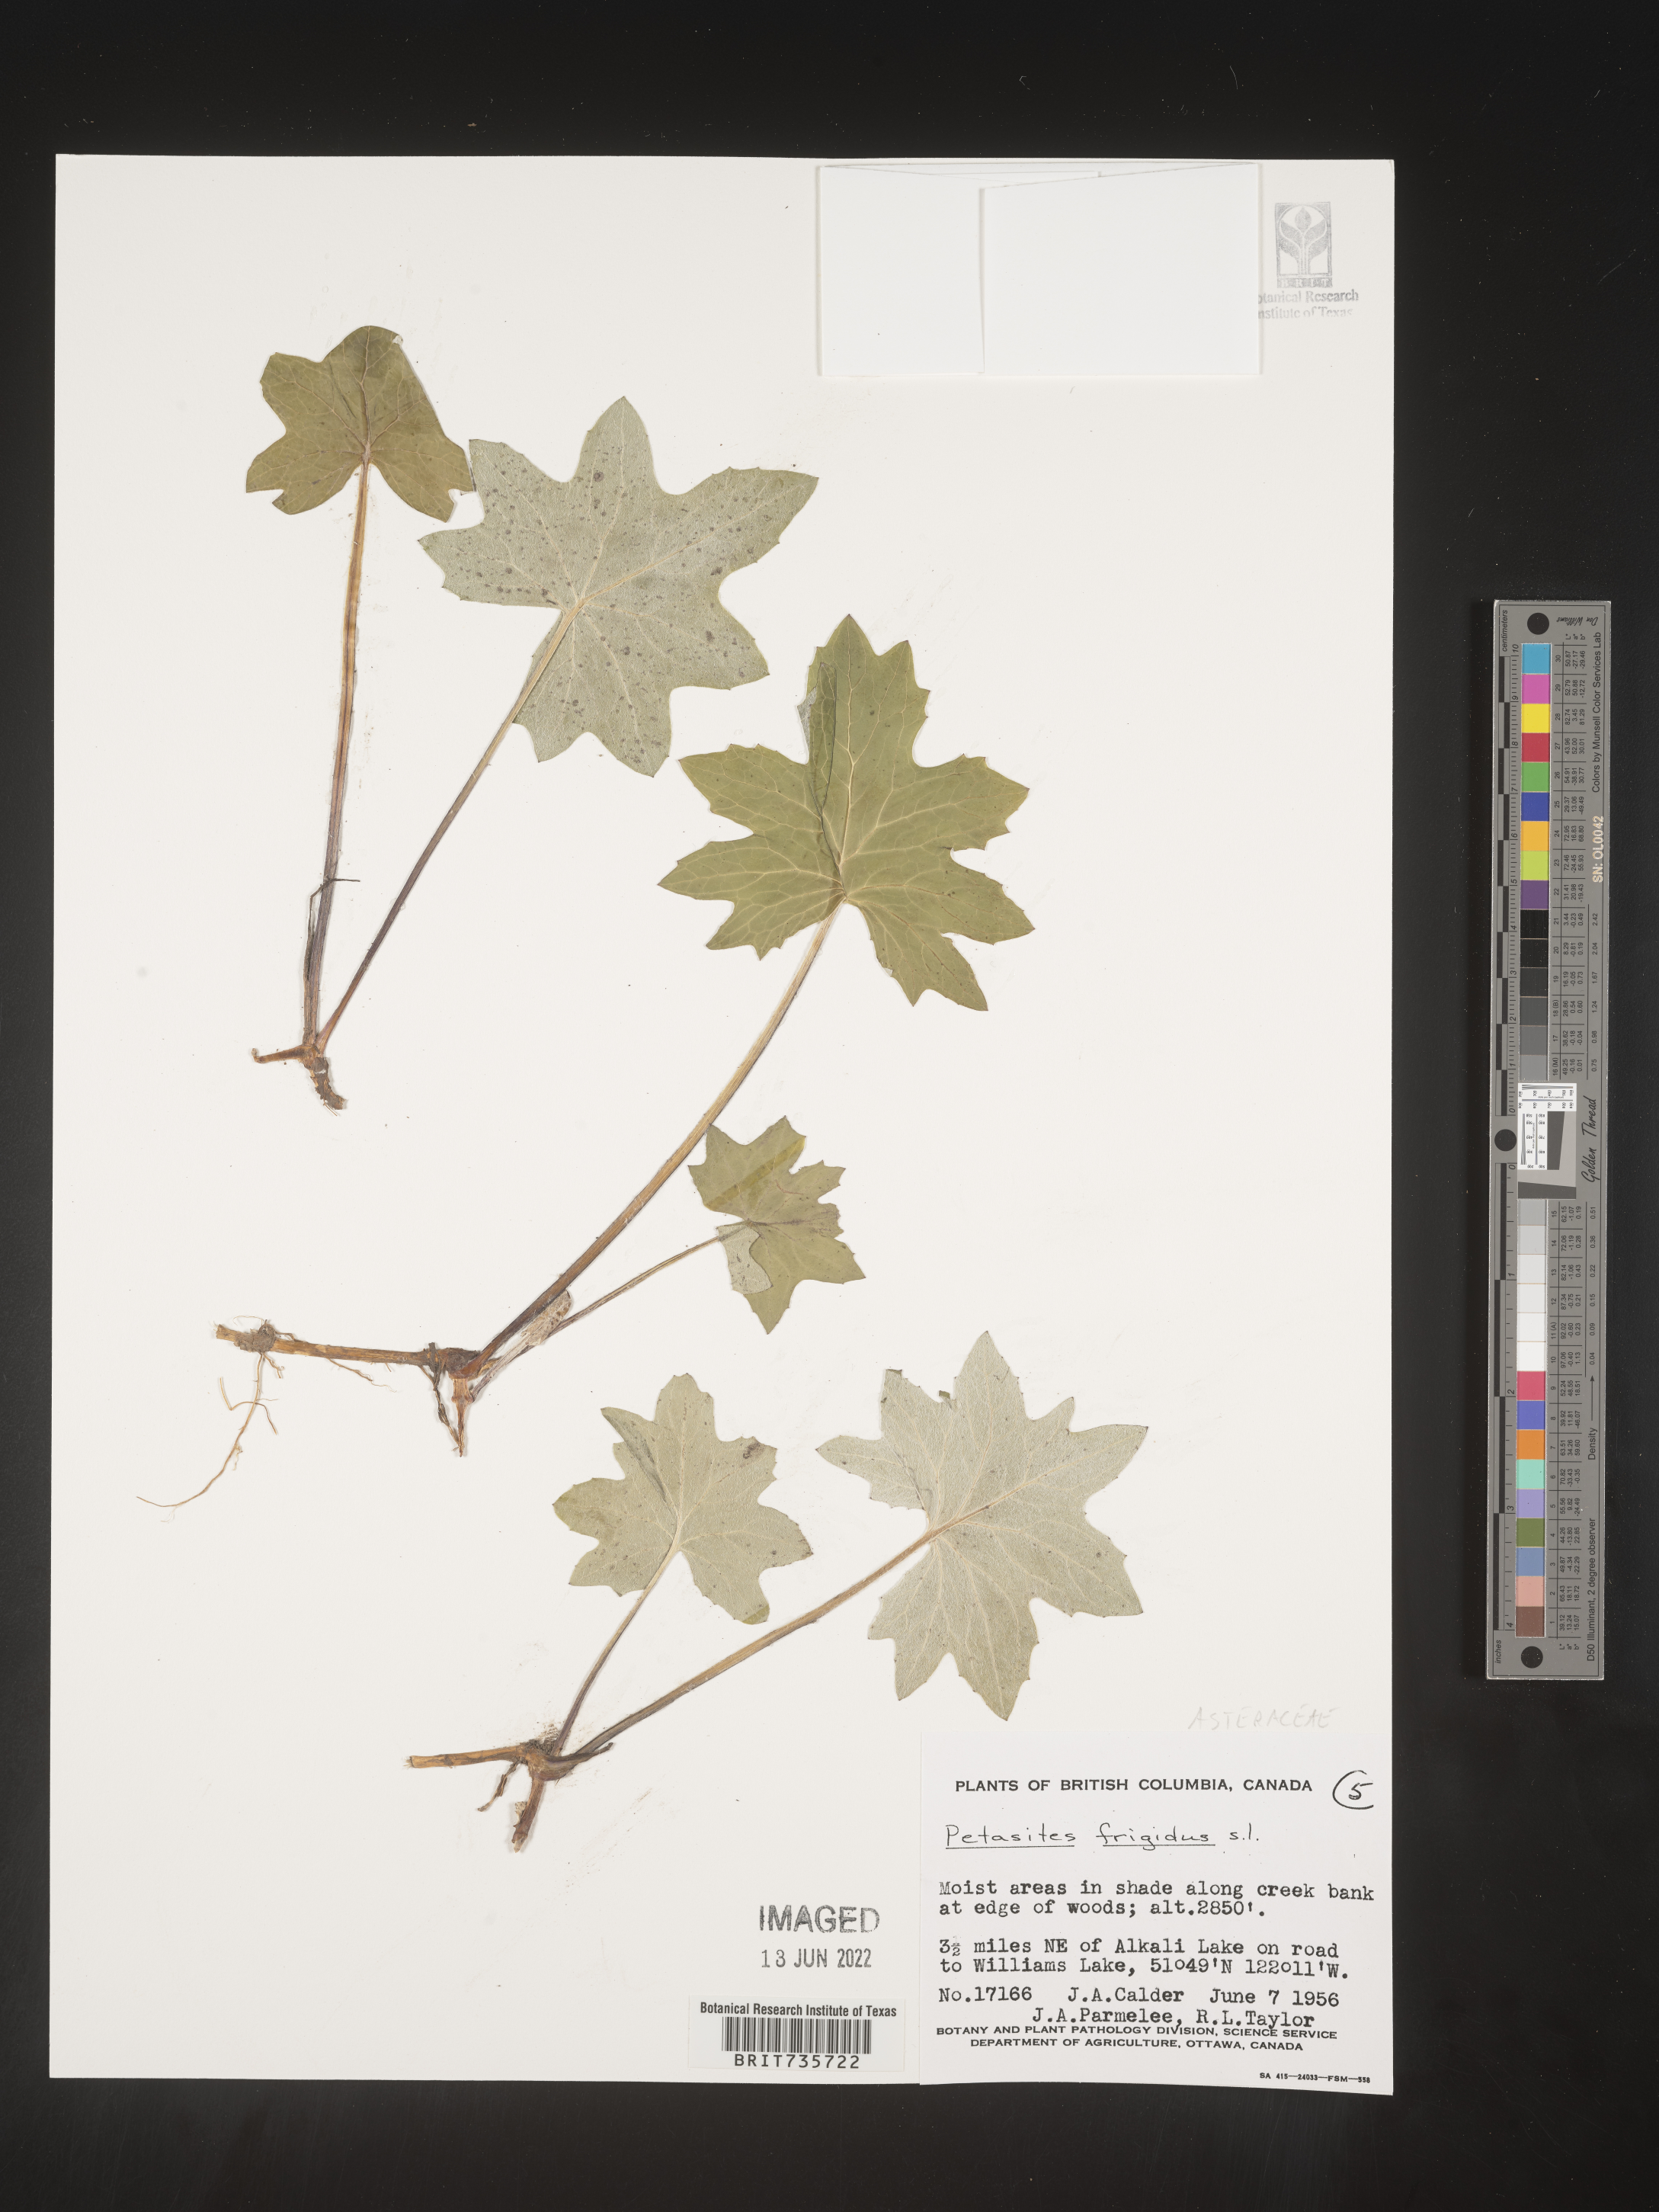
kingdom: Plantae
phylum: Tracheophyta
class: Magnoliopsida
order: Asterales
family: Asteraceae
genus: Petasites
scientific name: Petasites frigidus
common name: Arctic butterbur
